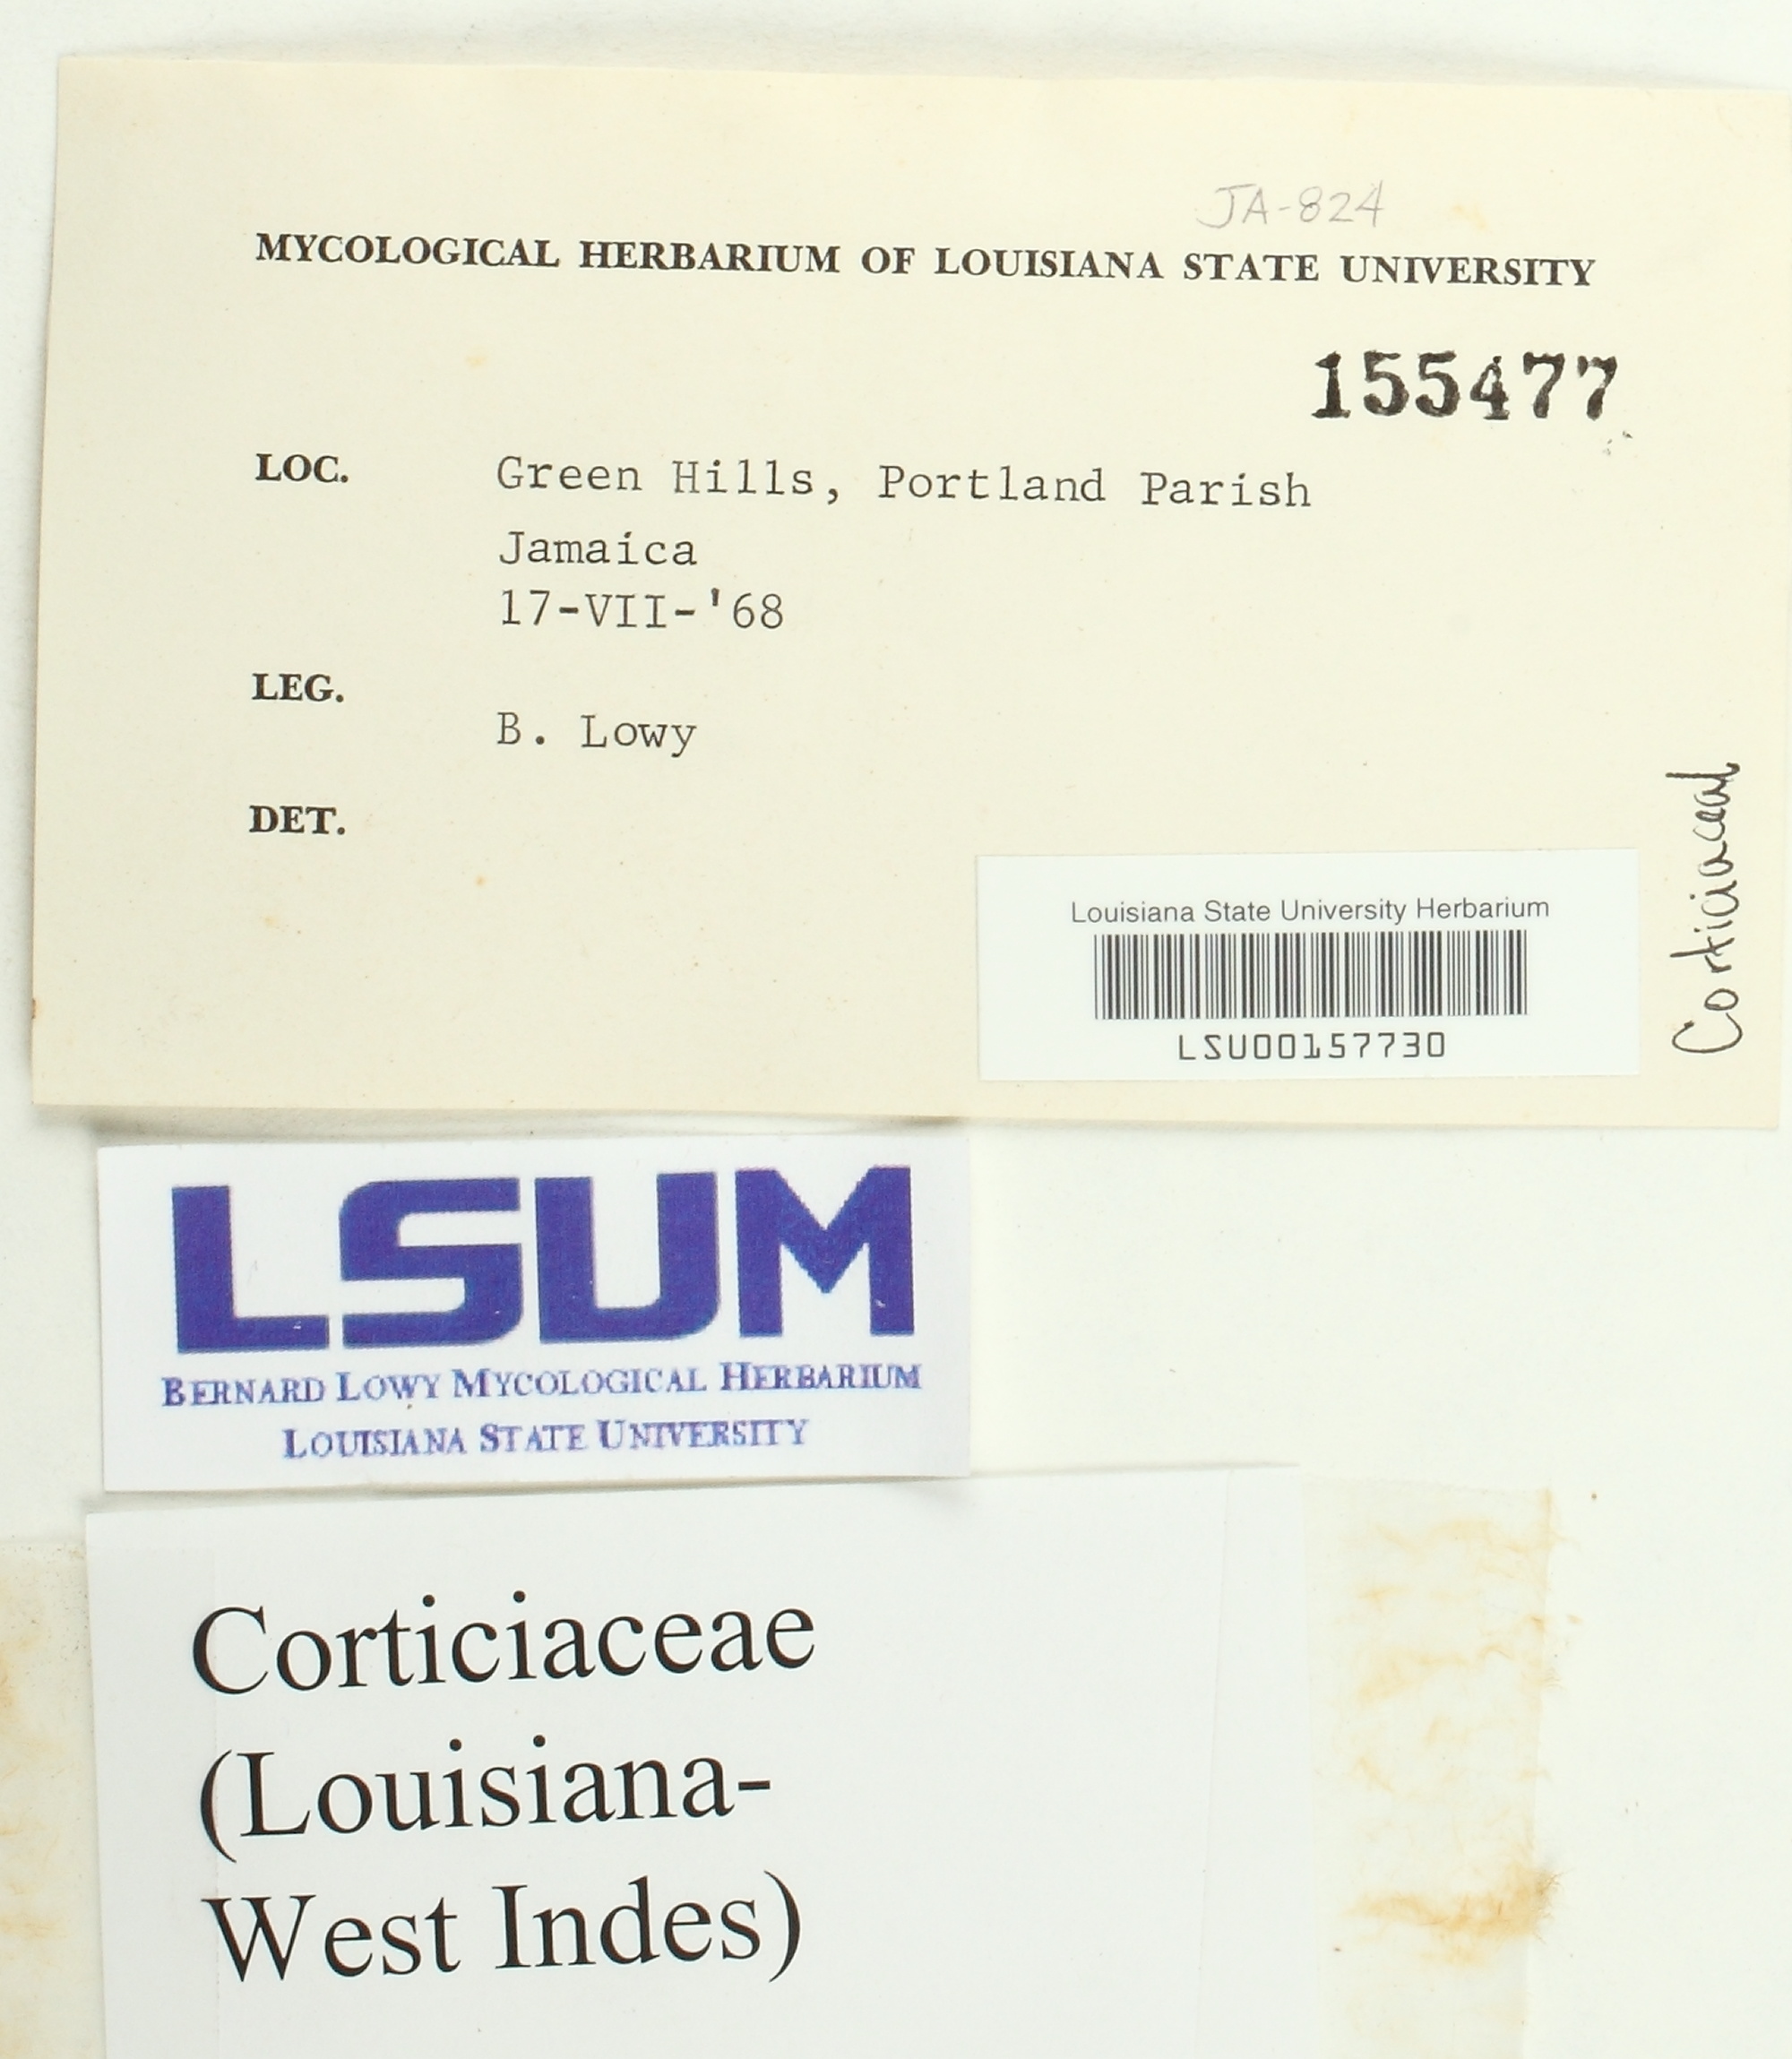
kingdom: Fungi
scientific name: Fungi
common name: Fungi
